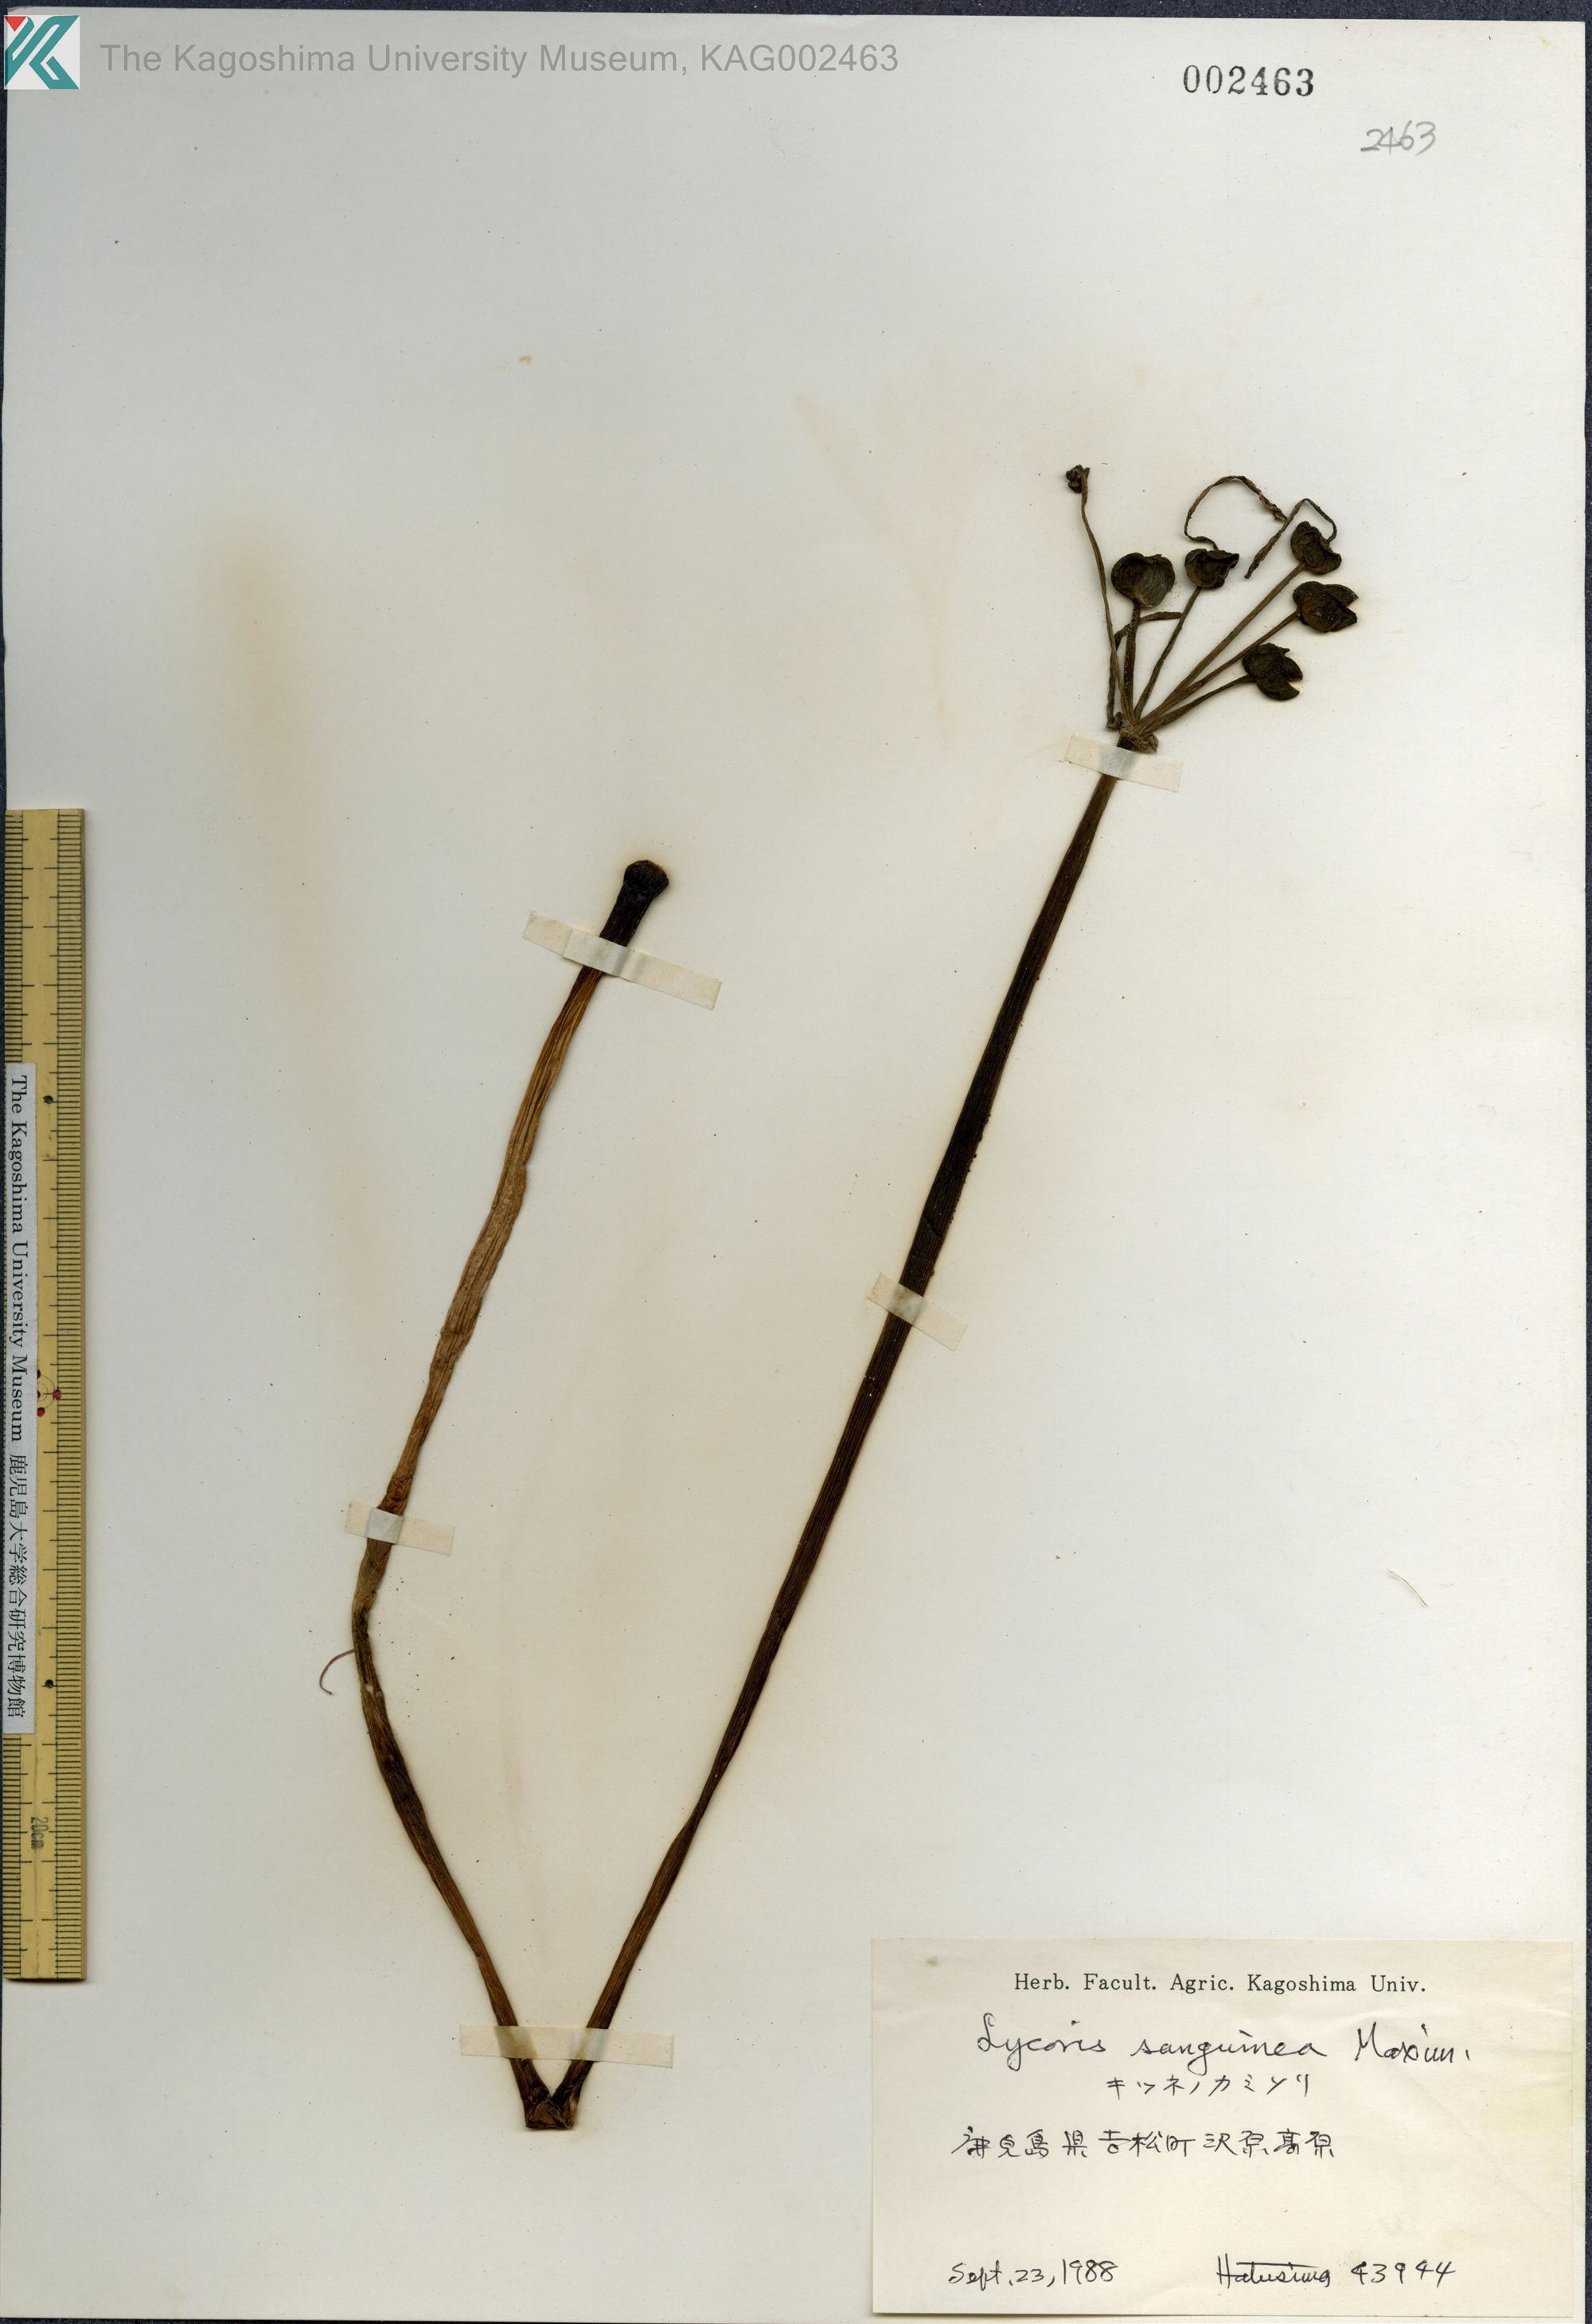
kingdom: Plantae
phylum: Tracheophyta
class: Liliopsida
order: Asparagales
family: Amaryllidaceae
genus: Lycoris
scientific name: Lycoris sanguinea
